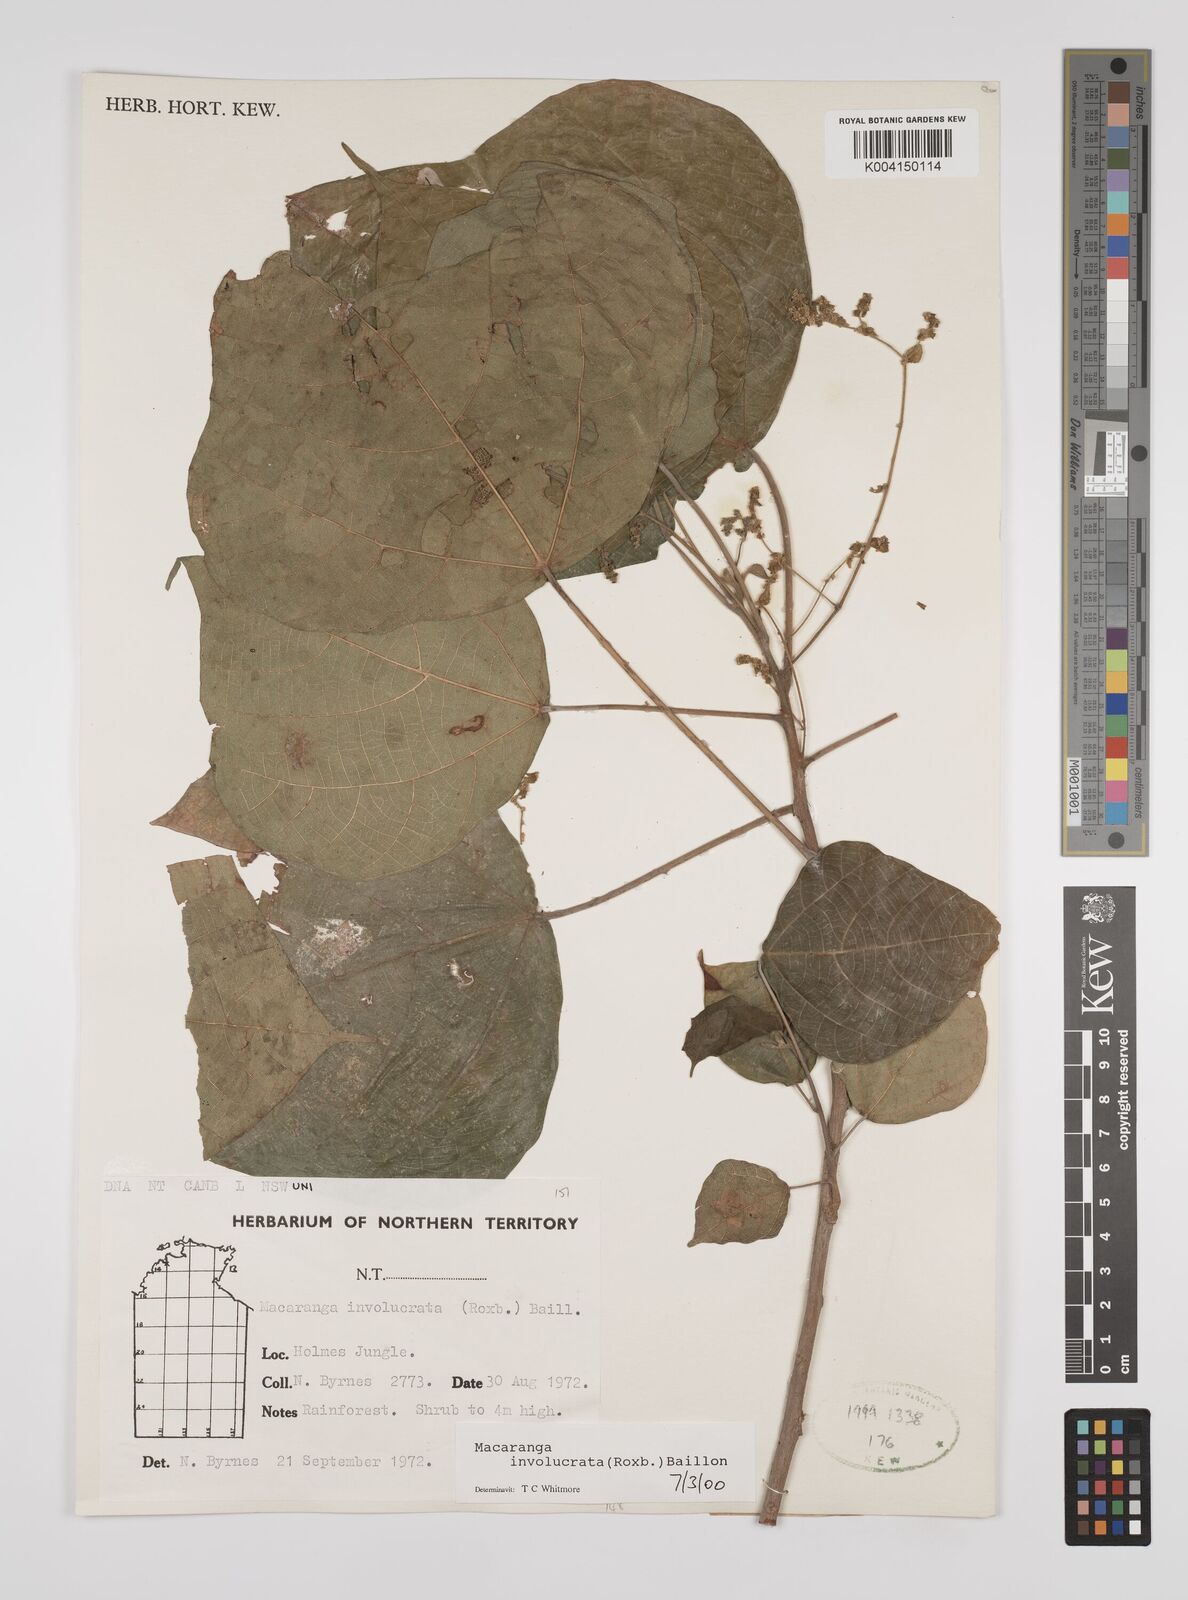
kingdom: Plantae
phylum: Tracheophyta
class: Magnoliopsida
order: Malpighiales
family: Euphorbiaceae
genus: Macaranga
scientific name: Macaranga involucrata
